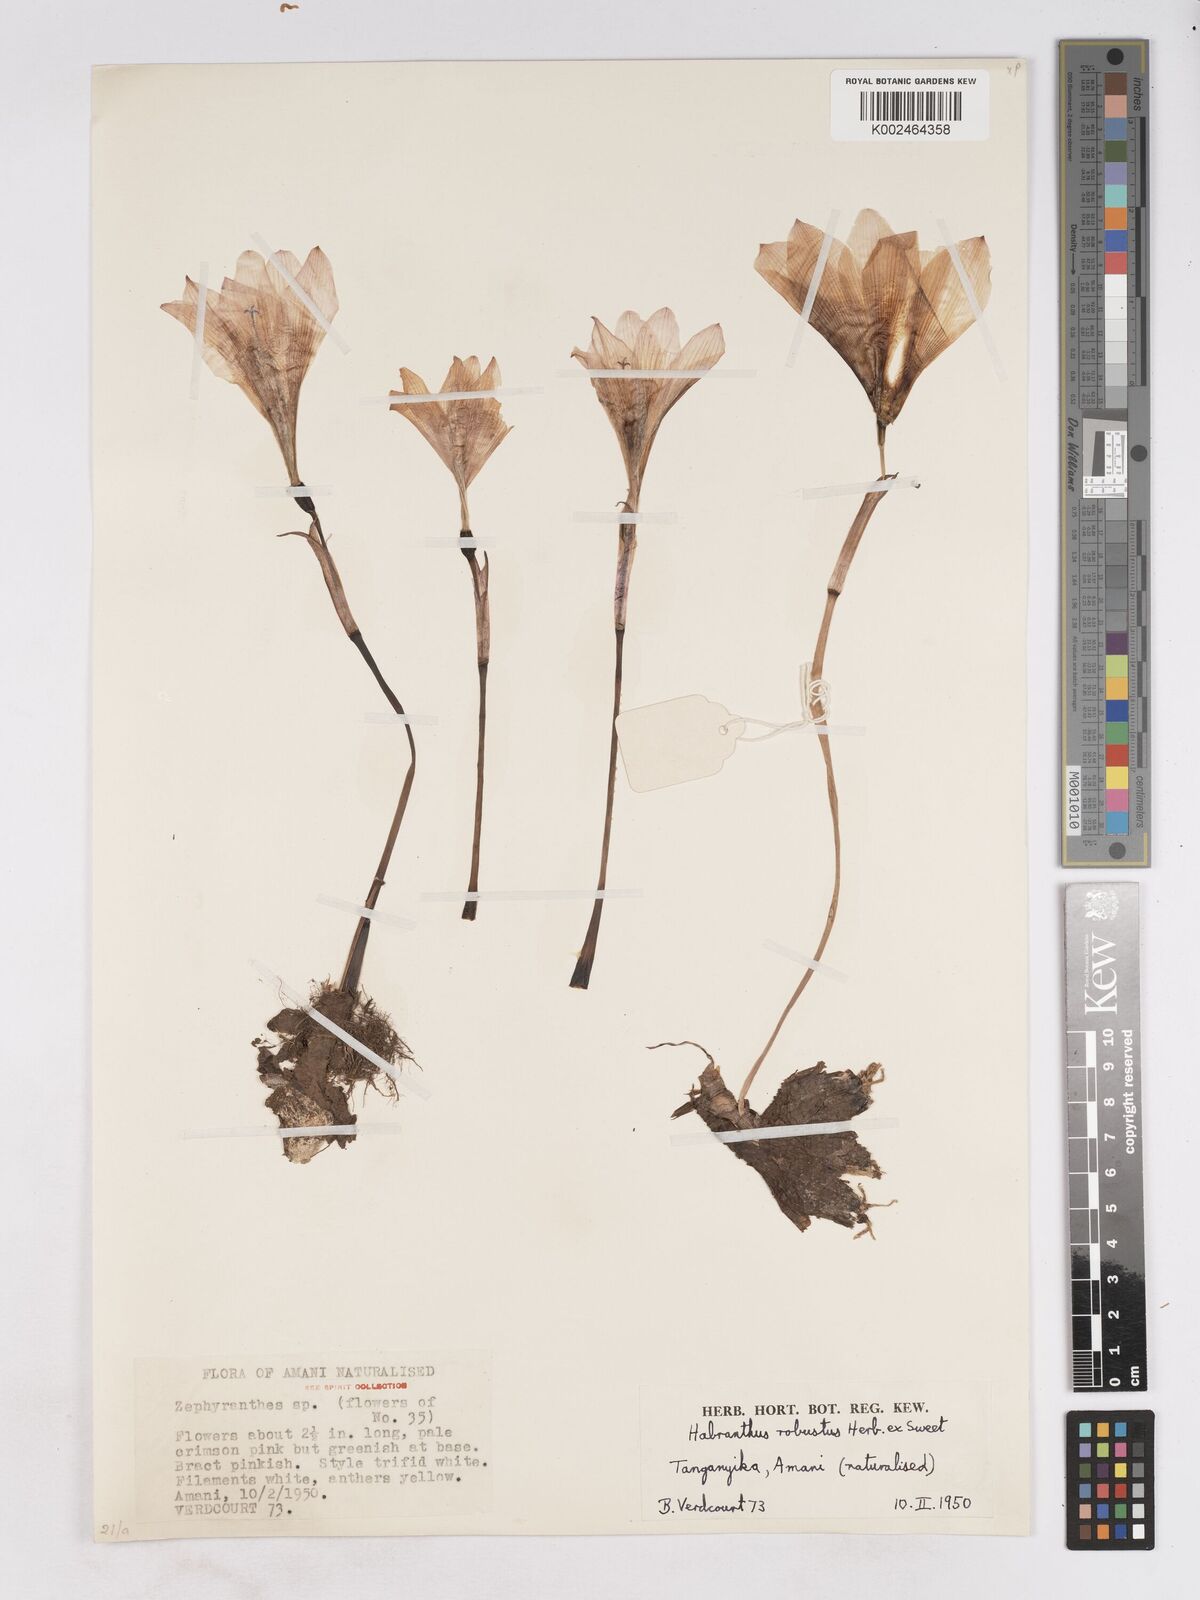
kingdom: Plantae
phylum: Tracheophyta
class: Liliopsida
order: Asparagales
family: Amaryllidaceae
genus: Zephyranthes
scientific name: Zephyranthes robusta
